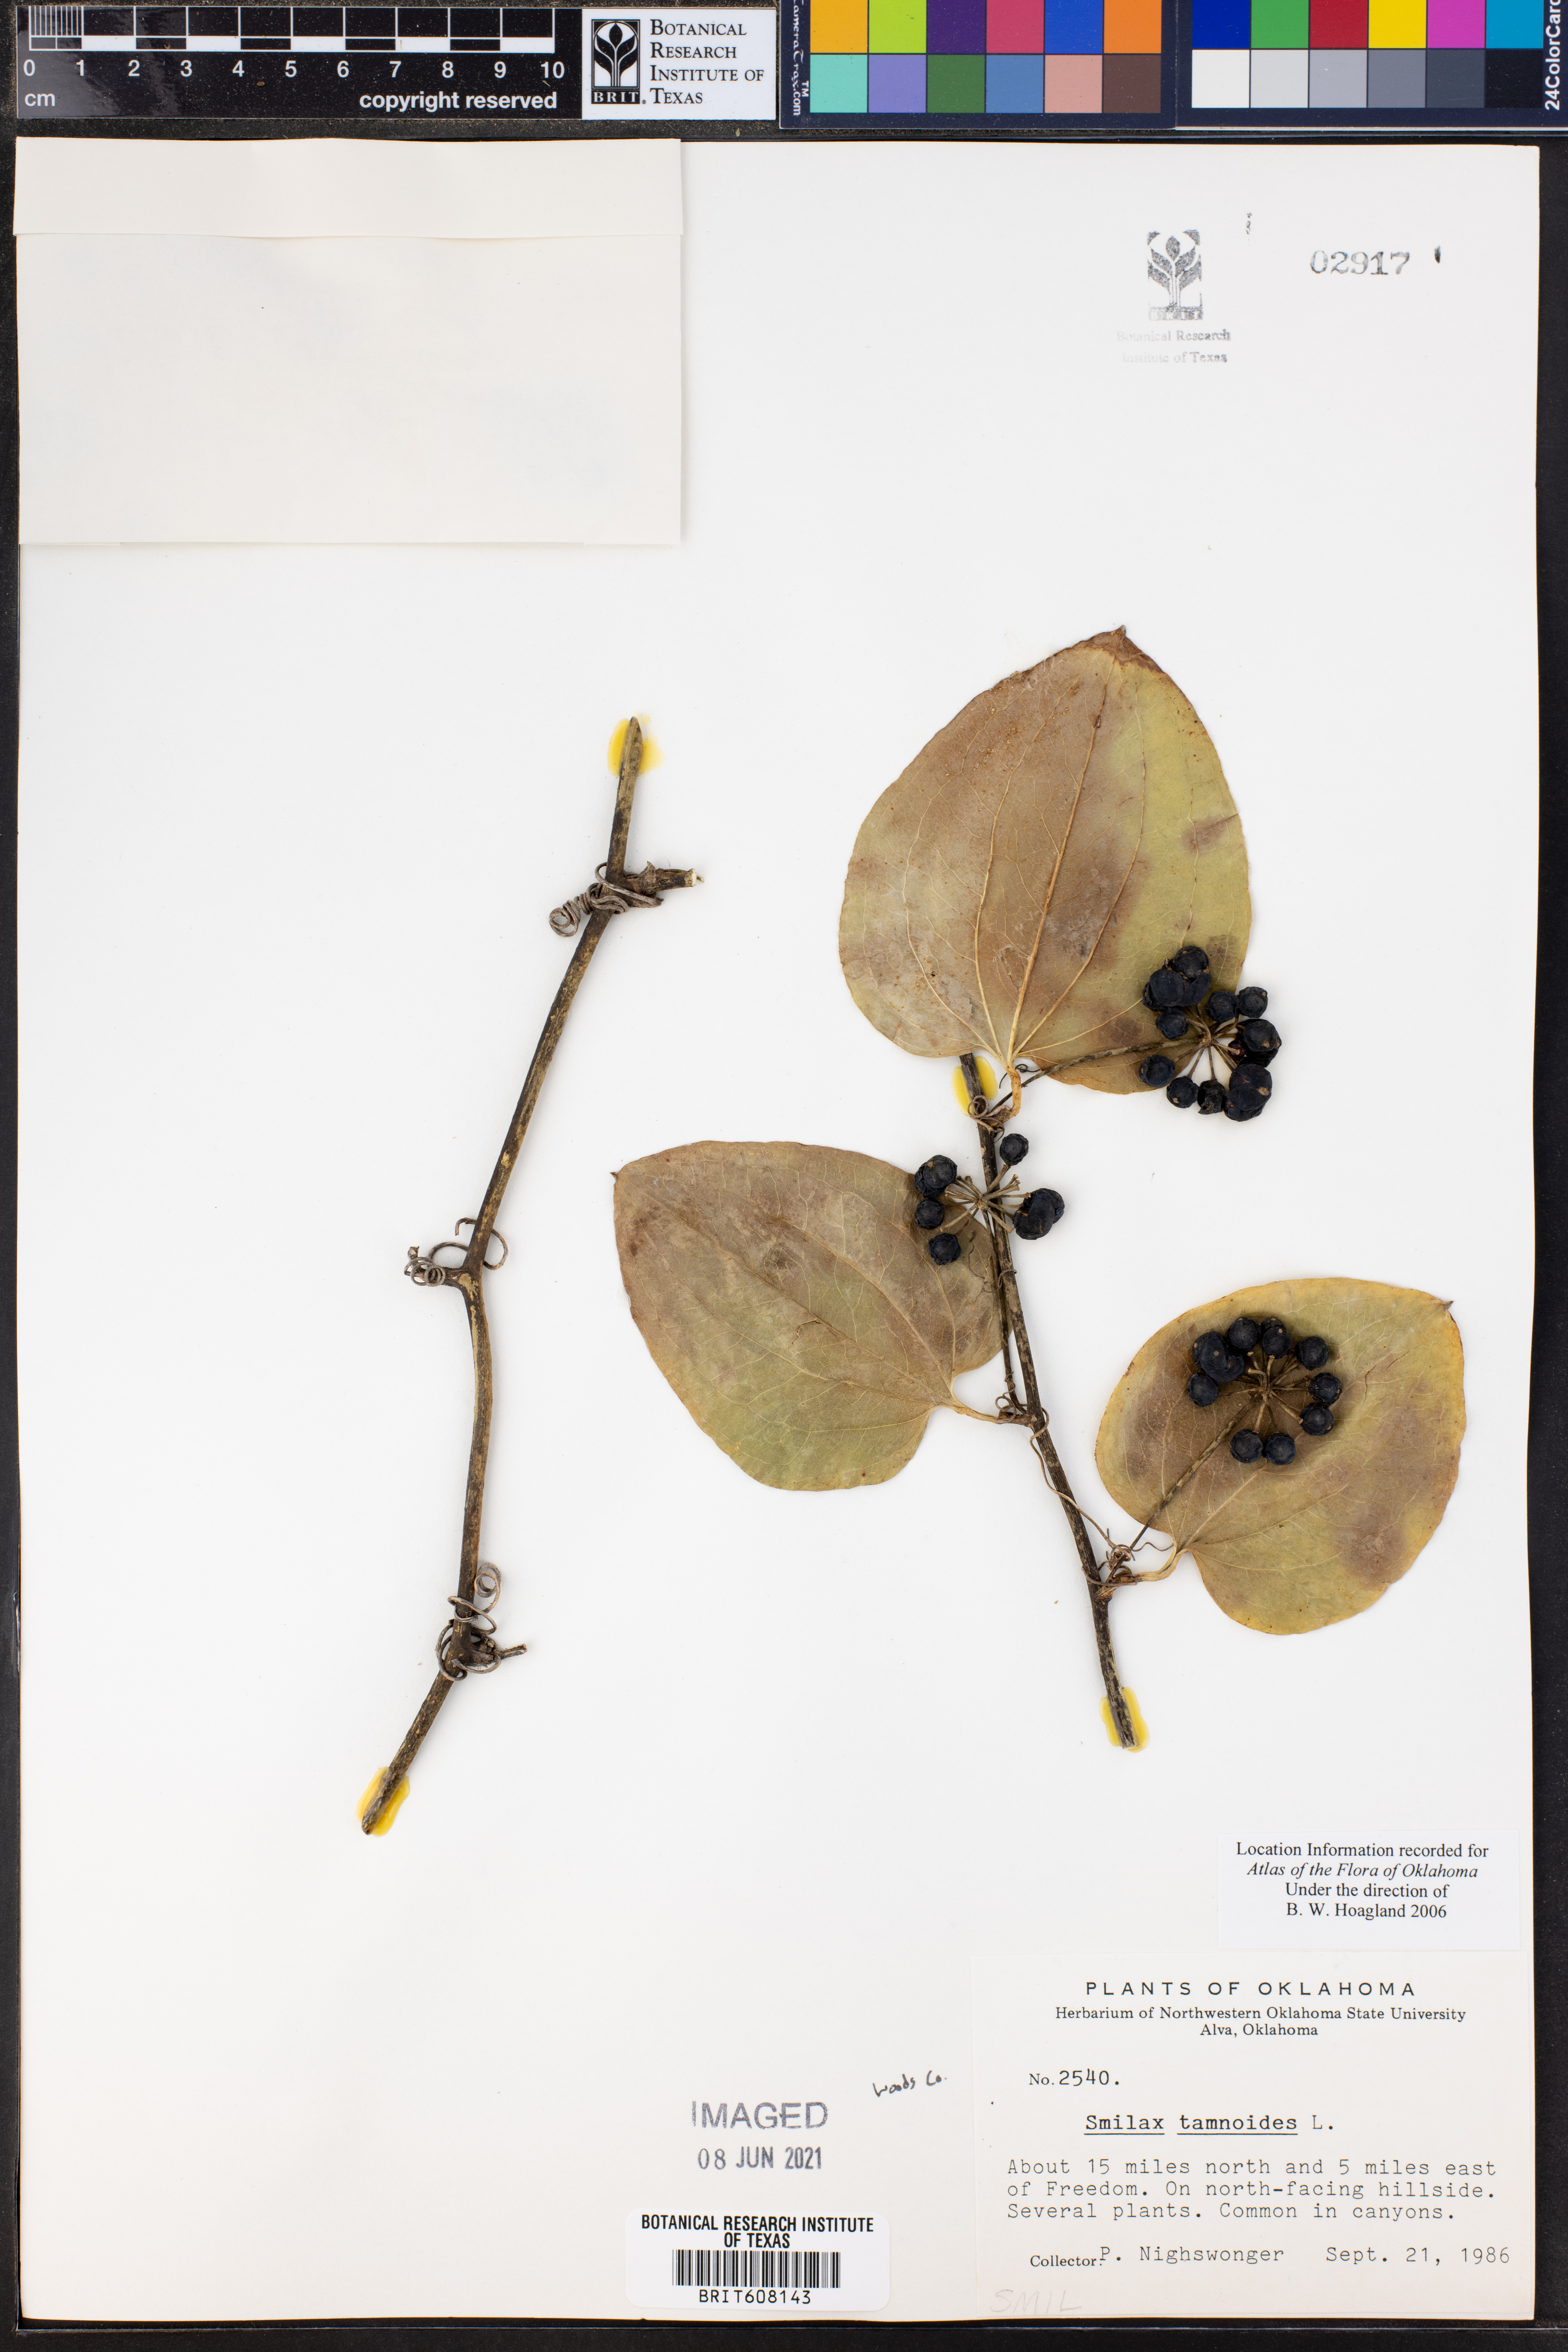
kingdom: Plantae
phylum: Tracheophyta
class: Liliopsida
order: Liliales
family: Smilacaceae
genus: Smilax
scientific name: Smilax tamnoides
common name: Hellfetter
